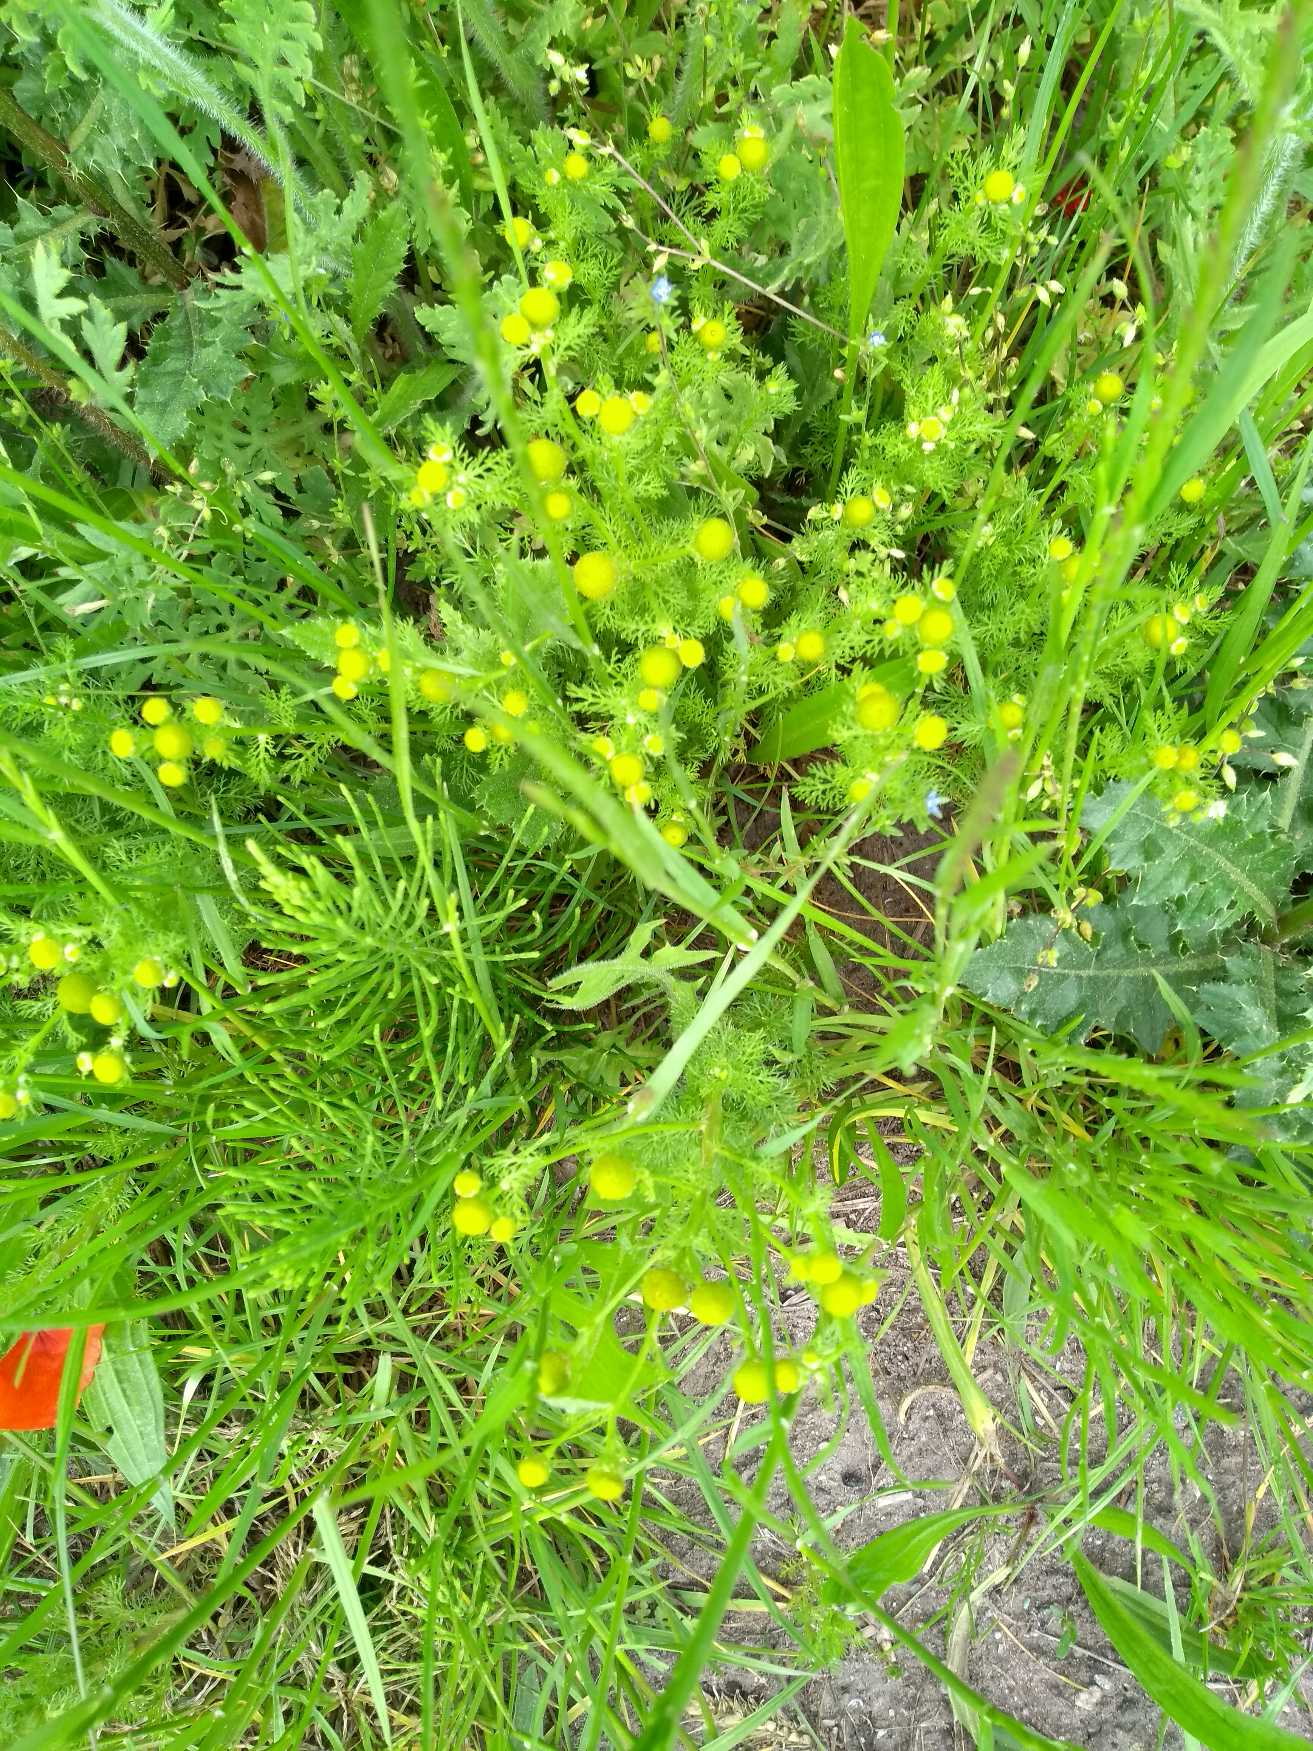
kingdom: Plantae
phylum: Tracheophyta
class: Magnoliopsida
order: Asterales
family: Asteraceae
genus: Matricaria
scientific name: Matricaria discoidea
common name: Skive-kamille
